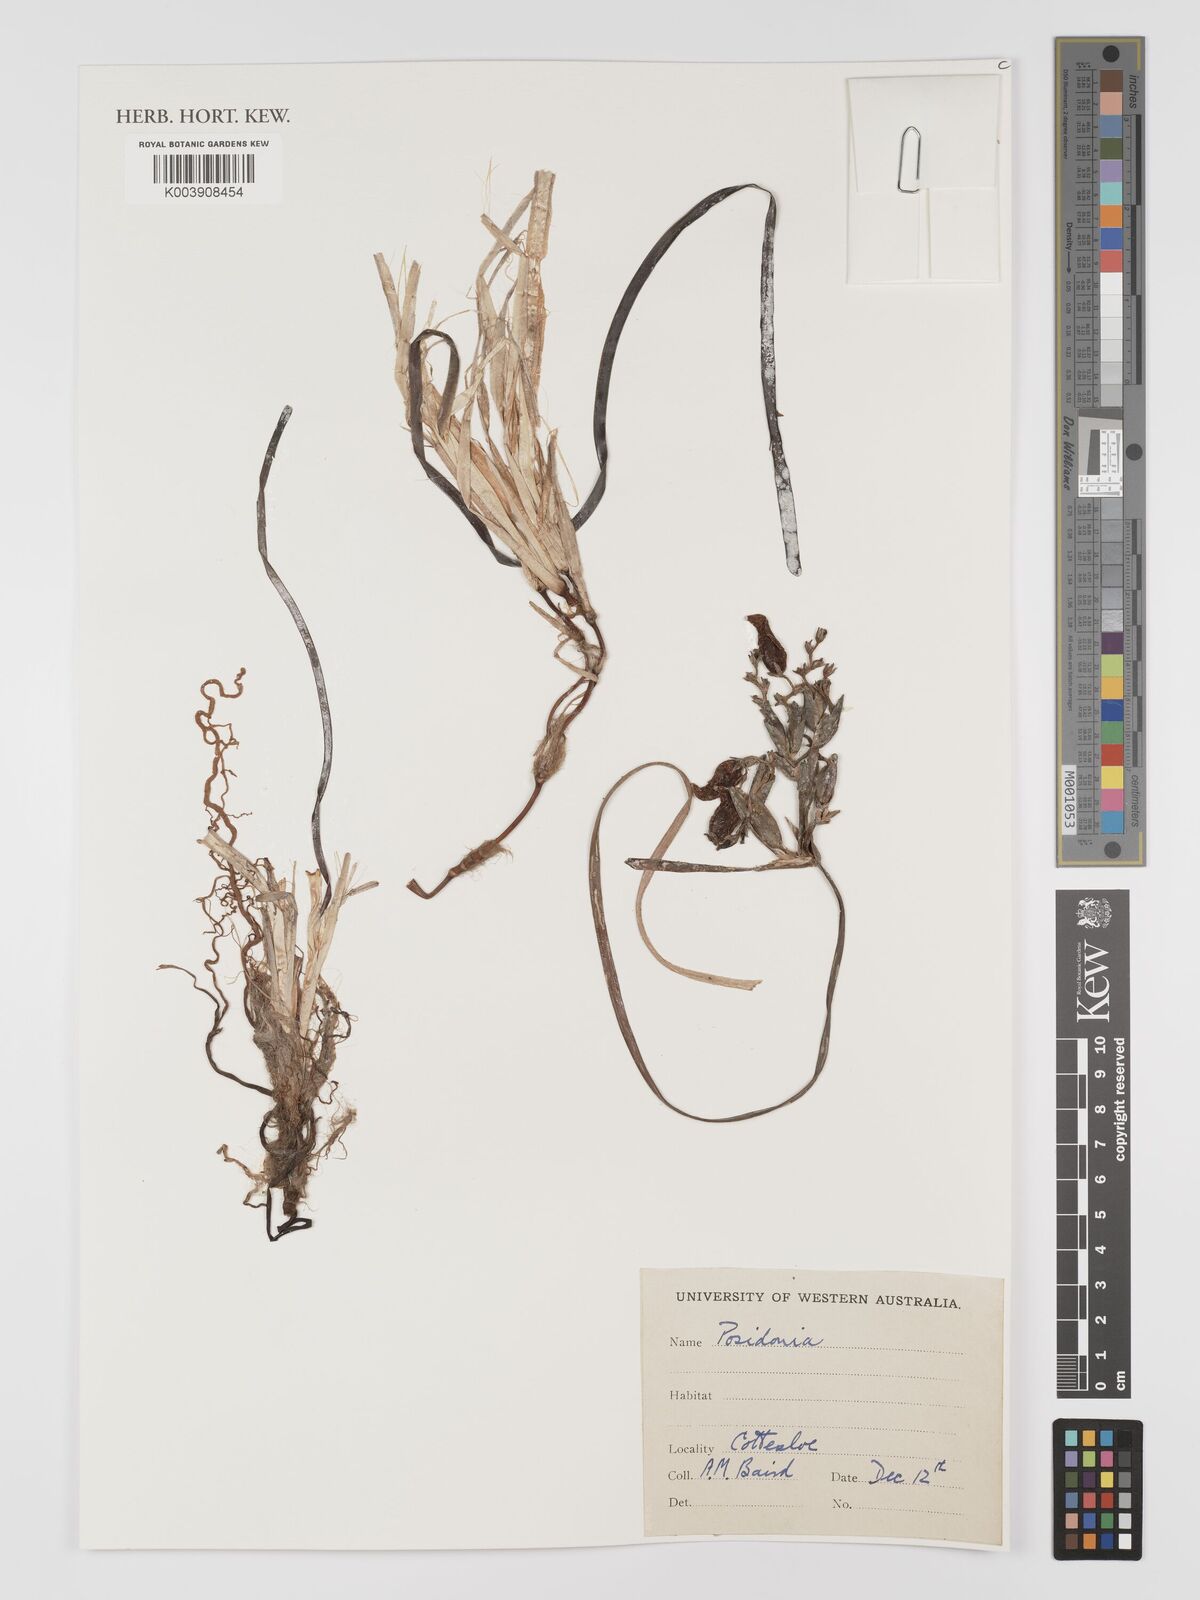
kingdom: Plantae
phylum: Tracheophyta
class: Liliopsida
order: Alismatales
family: Posidoniaceae
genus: Posidonia
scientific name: Posidonia
